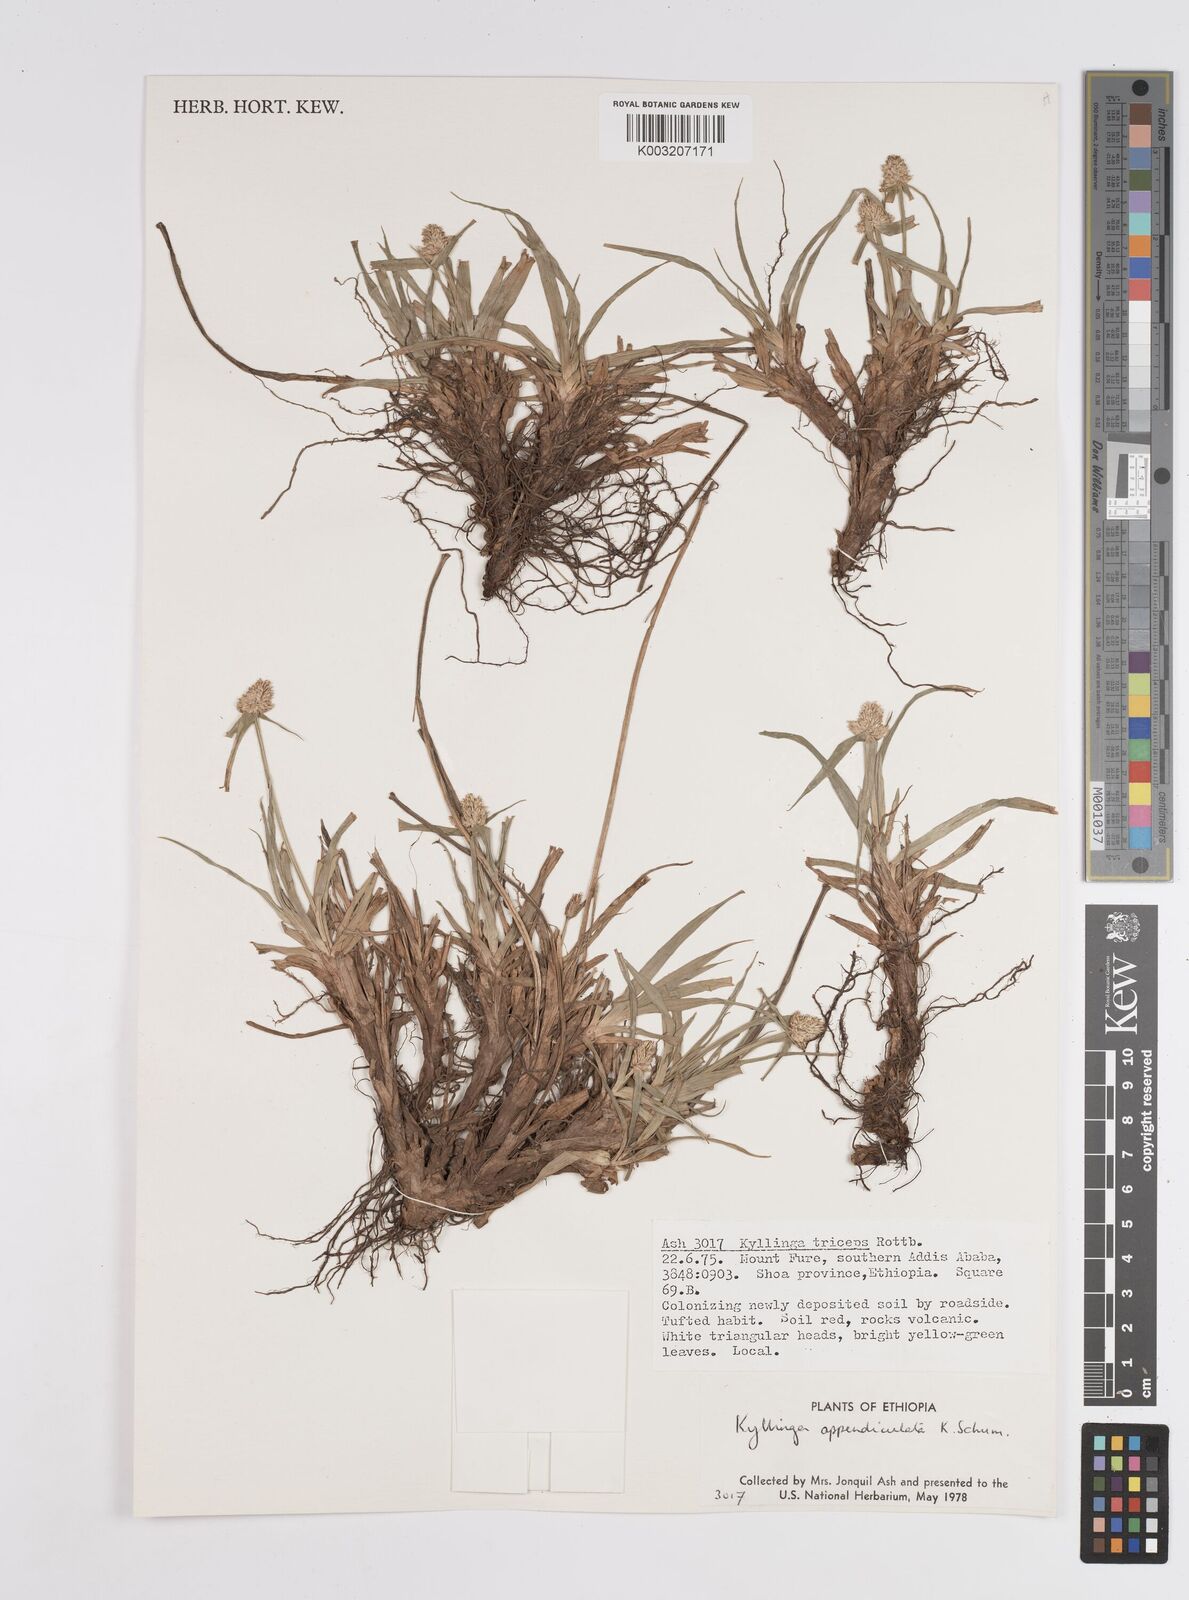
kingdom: Plantae
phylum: Tracheophyta
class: Liliopsida
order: Poales
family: Cyperaceae
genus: Cyperus
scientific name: Cyperus
